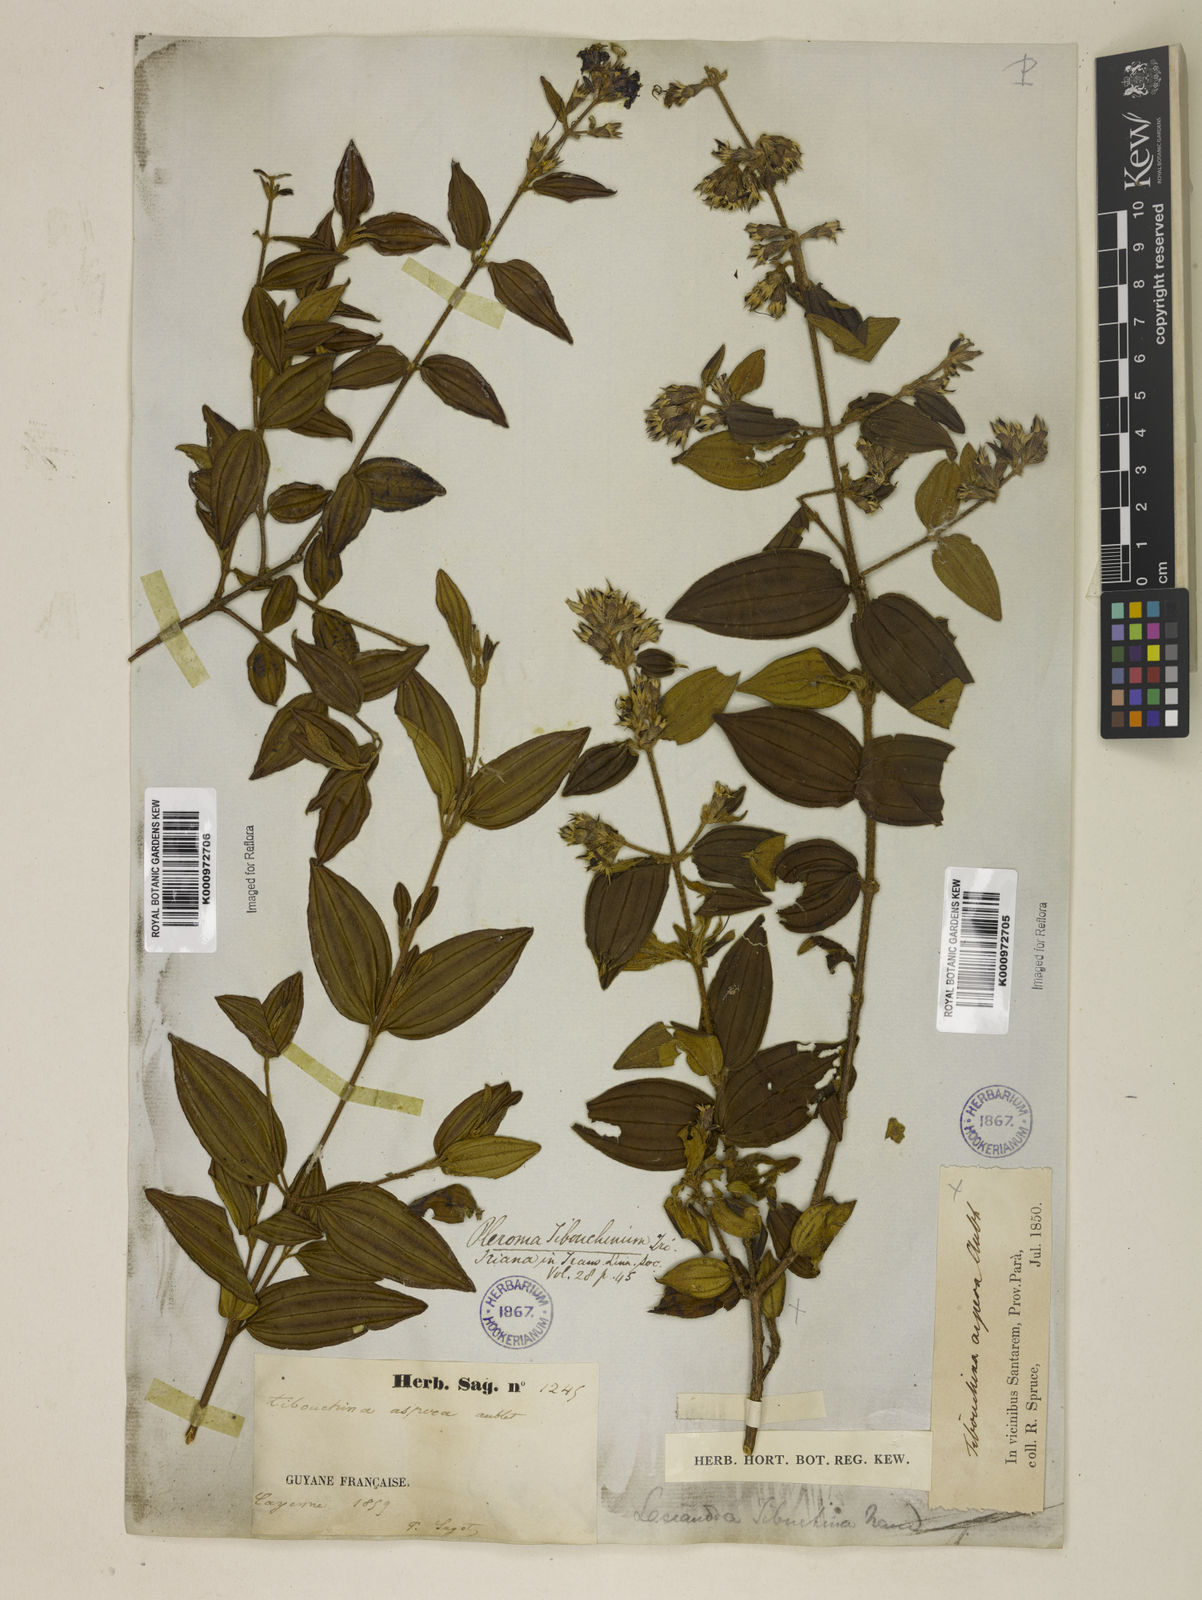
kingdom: Plantae
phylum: Tracheophyta
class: Magnoliopsida
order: Myrtales
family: Melastomataceae
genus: Tibouchina
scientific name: Tibouchina aspera
